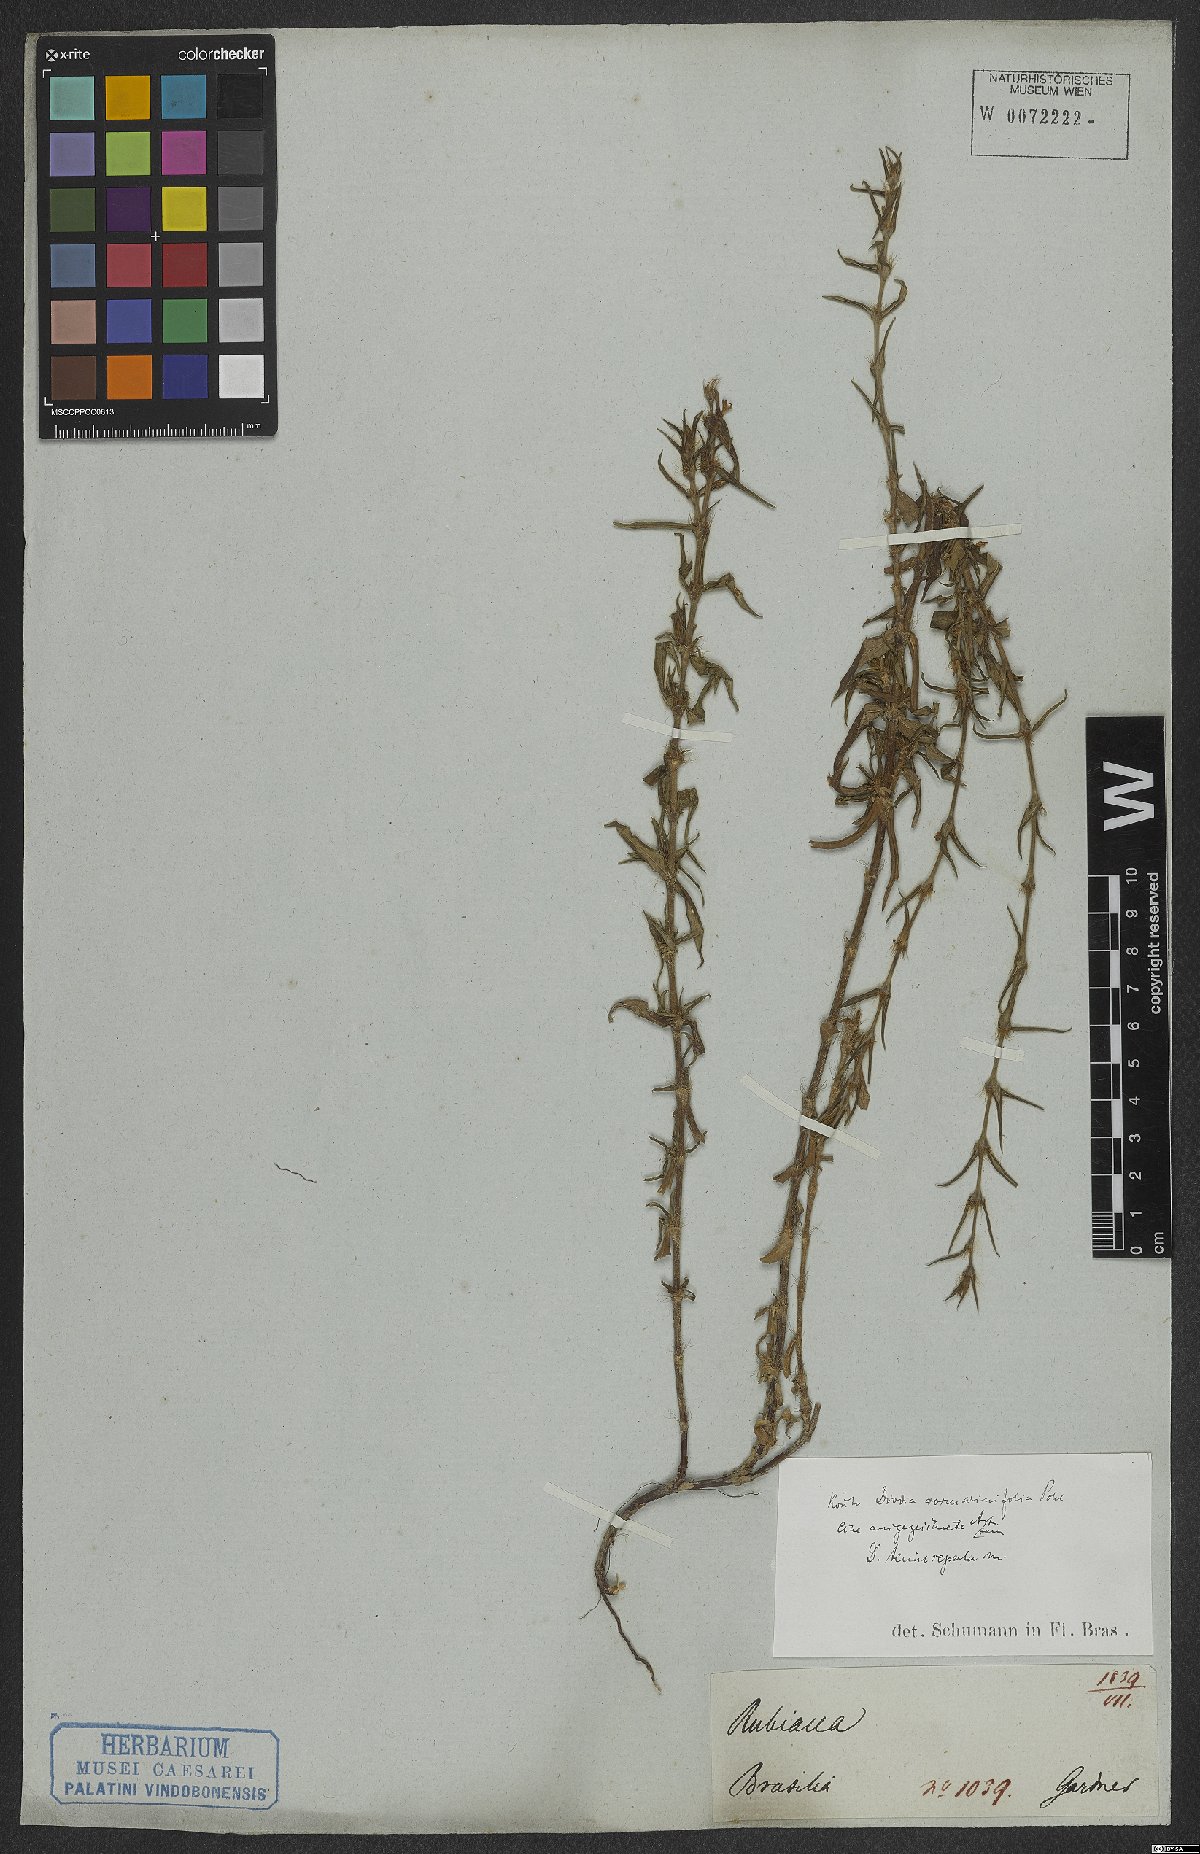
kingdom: Plantae
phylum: Tracheophyta
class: Magnoliopsida
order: Gentianales
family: Rubiaceae
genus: Hexasepalum
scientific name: Hexasepalum rosmarinifolium
